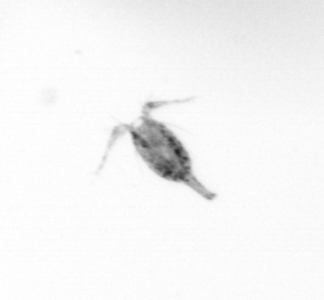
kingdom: Animalia
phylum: Arthropoda
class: Copepoda
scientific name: Copepoda
